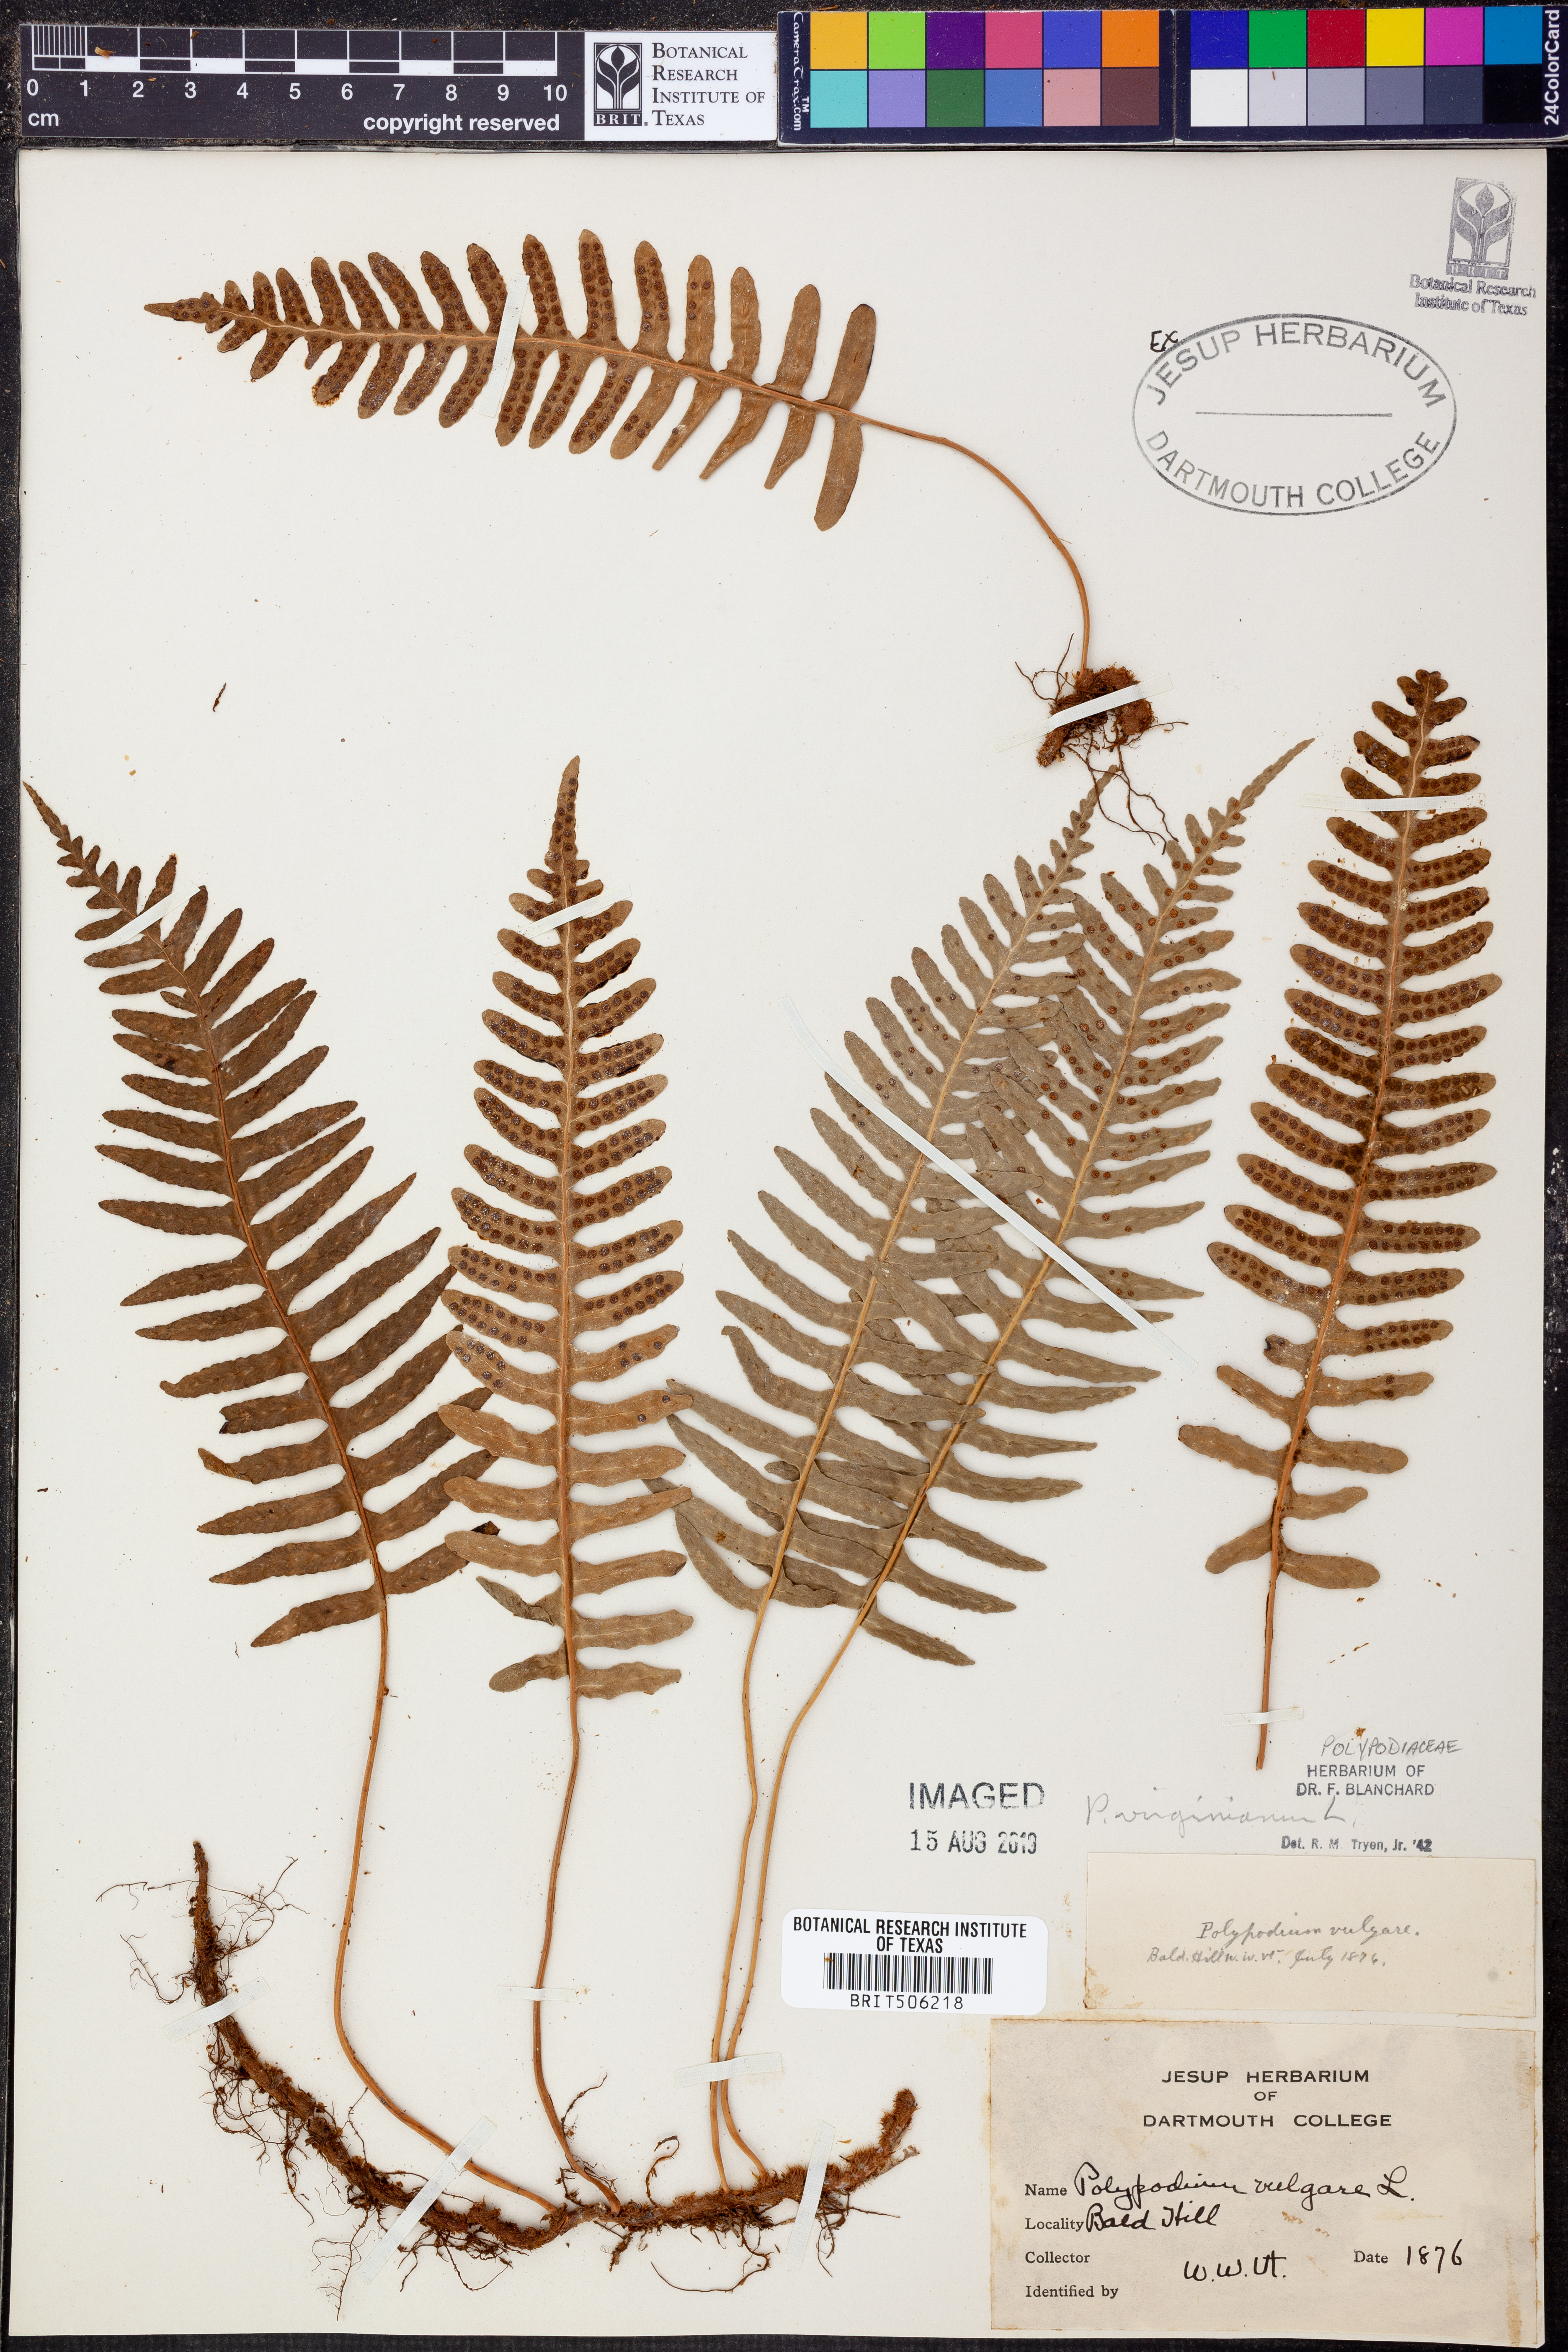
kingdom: Plantae
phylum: Tracheophyta
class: Polypodiopsida
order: Polypodiales
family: Polypodiaceae
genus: Polypodium
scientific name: Polypodium virginianum
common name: American wall fern
